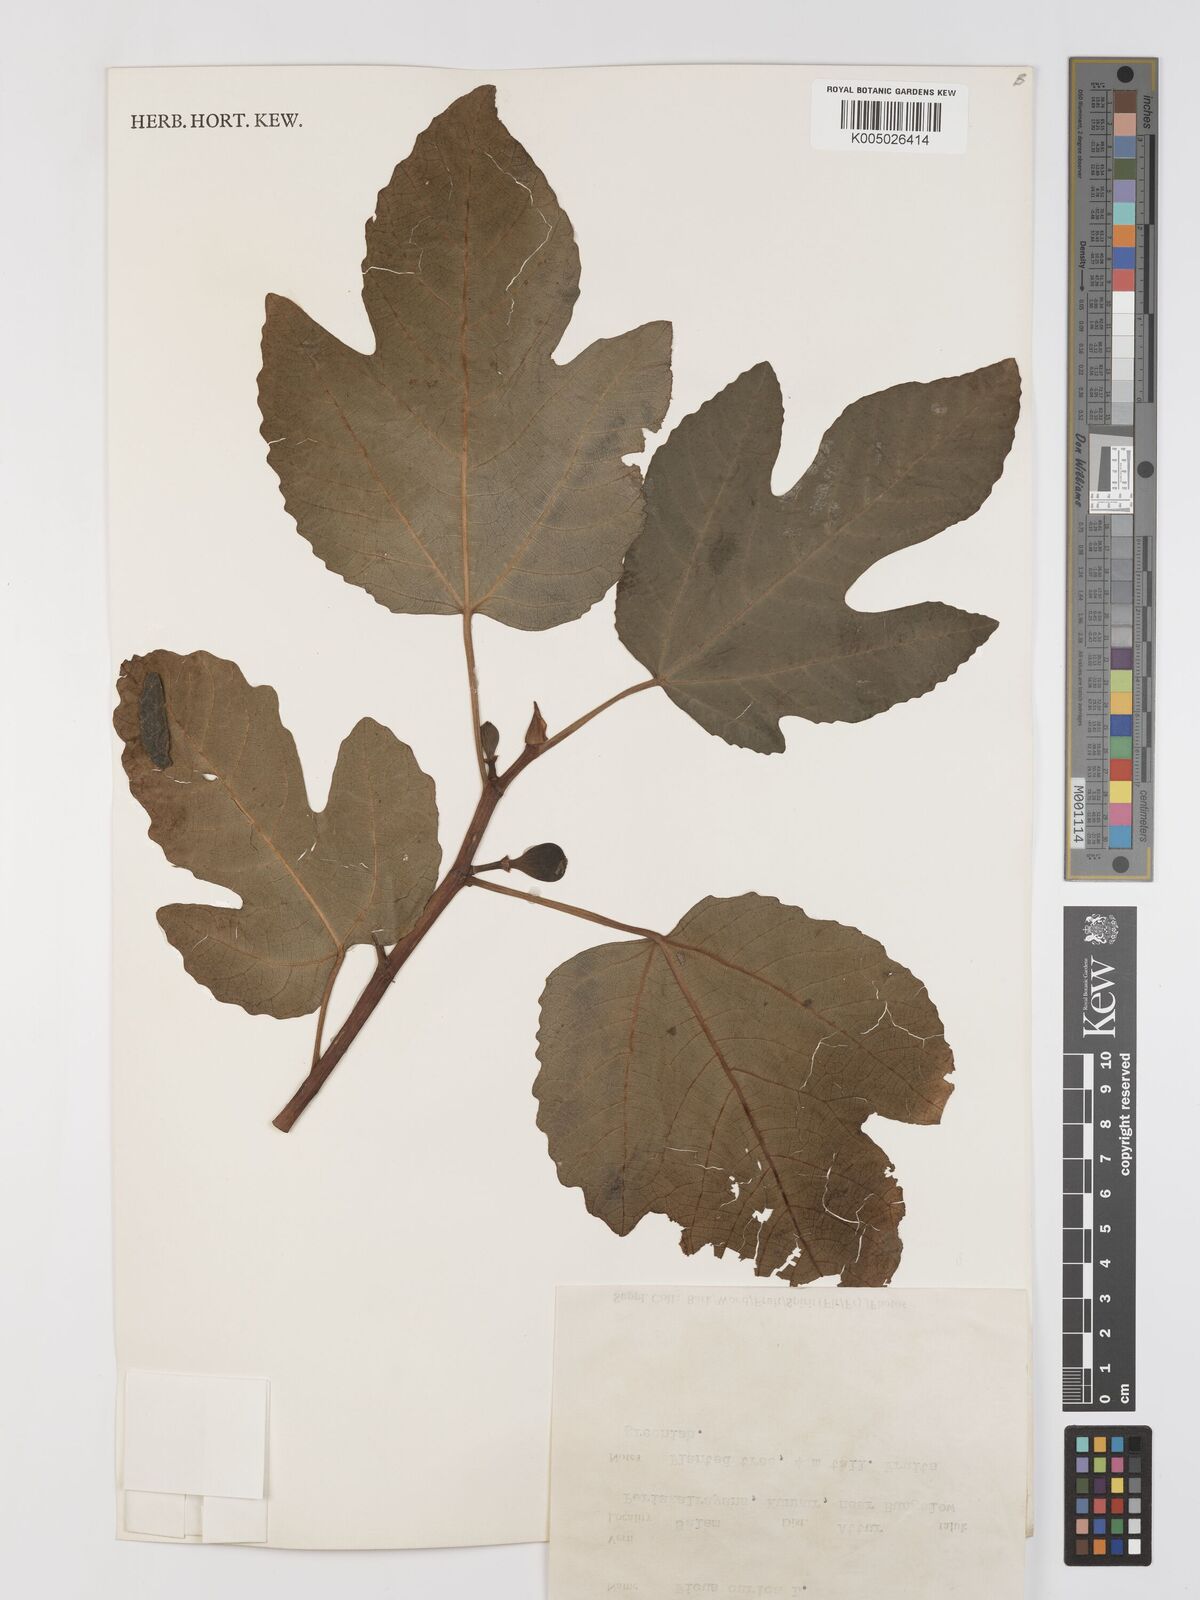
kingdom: Plantae
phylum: Tracheophyta
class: Magnoliopsida
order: Rosales
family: Moraceae
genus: Ficus
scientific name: Ficus carica
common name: Fig
